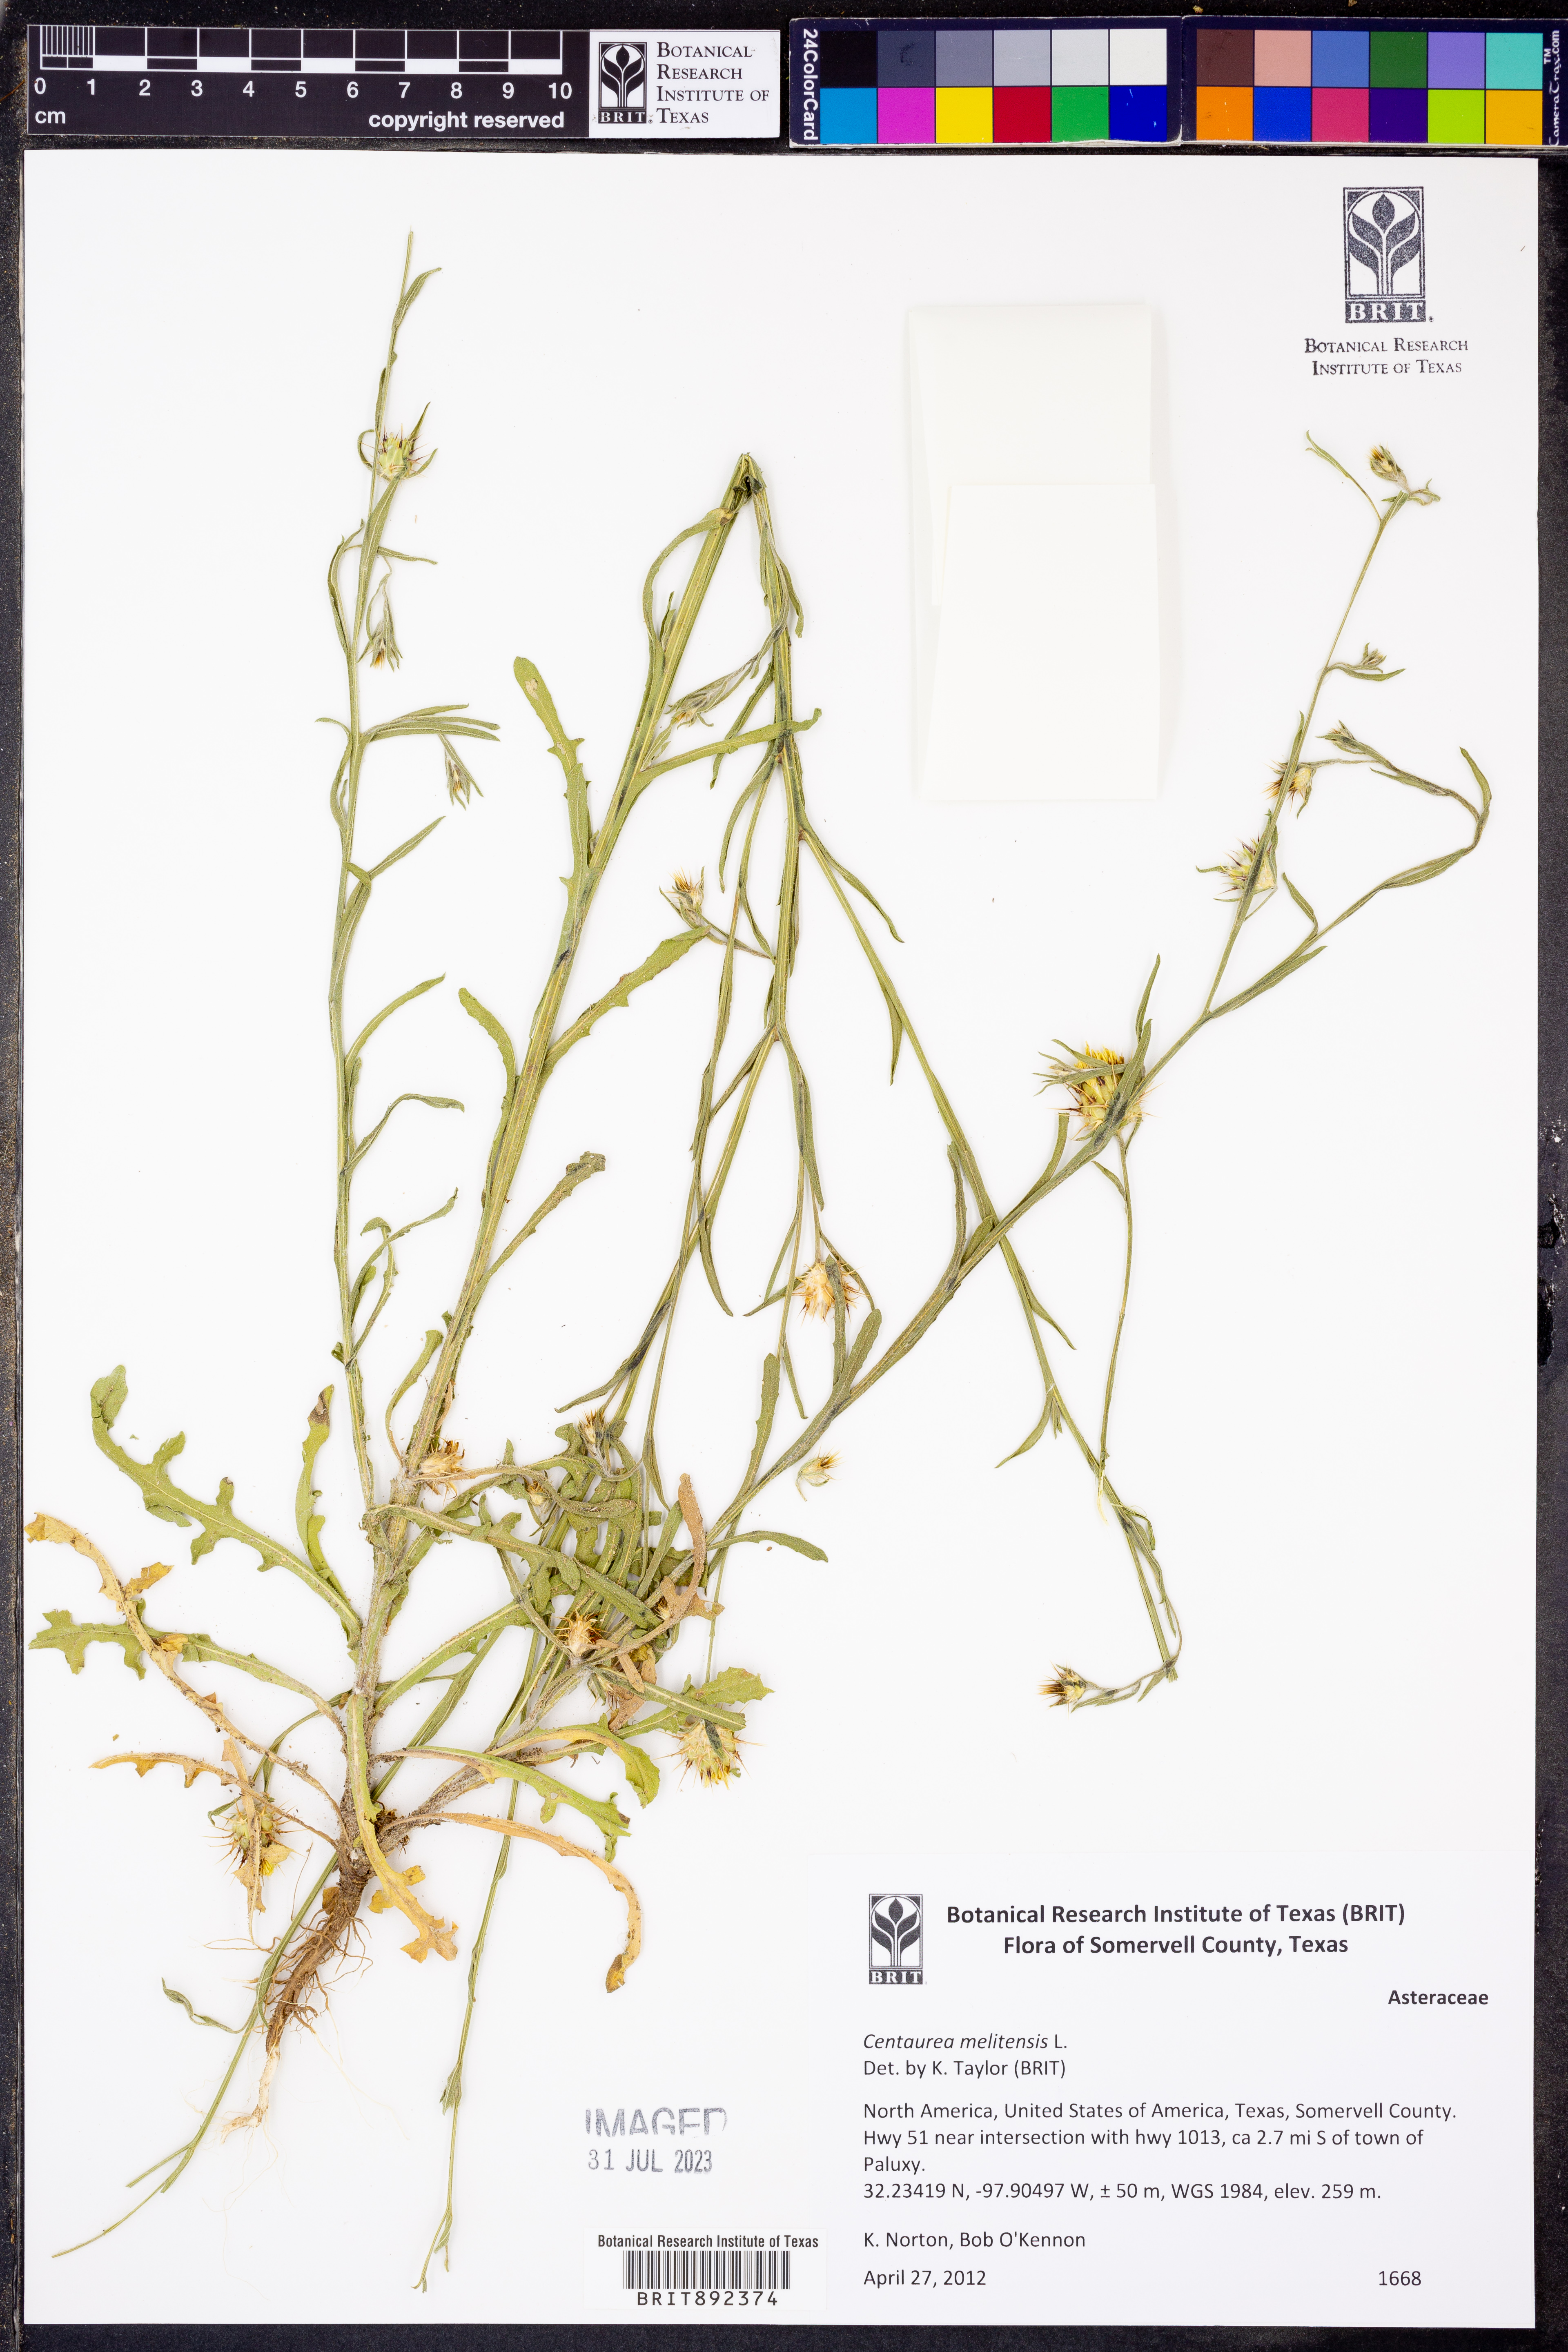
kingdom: Plantae
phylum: Tracheophyta
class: Magnoliopsida
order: Asterales
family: Asteraceae
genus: Centaurea
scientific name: Centaurea melitensis
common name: Maltese star-thistle
